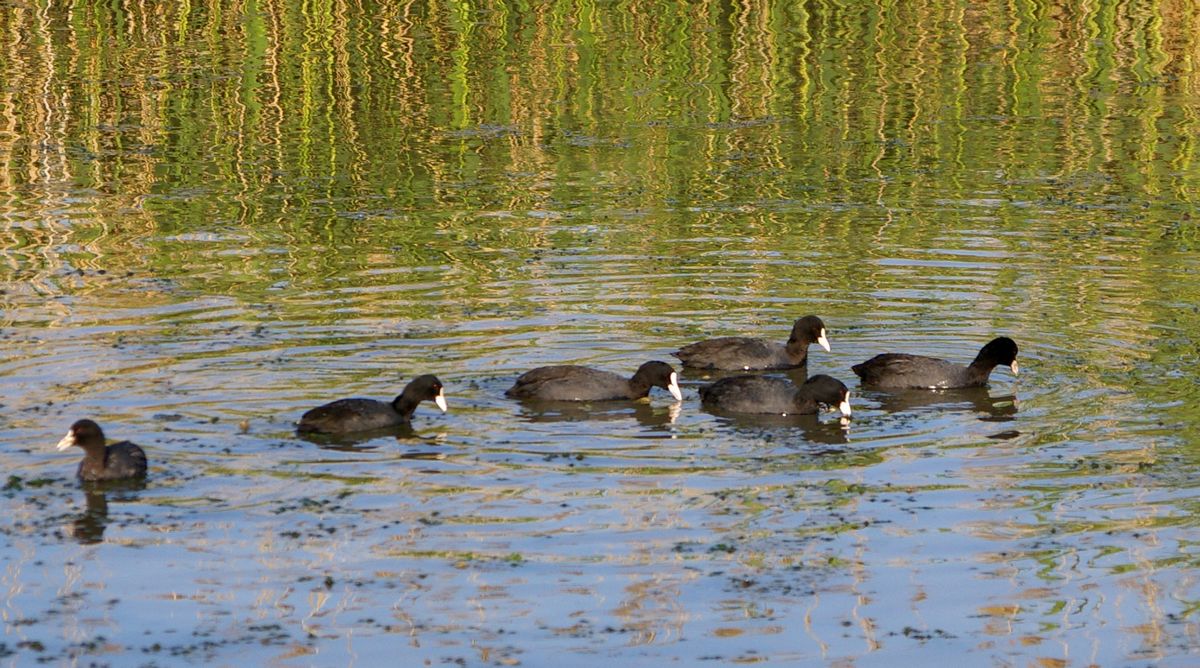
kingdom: Animalia
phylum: Chordata
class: Aves
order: Gruiformes
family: Rallidae
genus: Fulica
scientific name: Fulica atra
